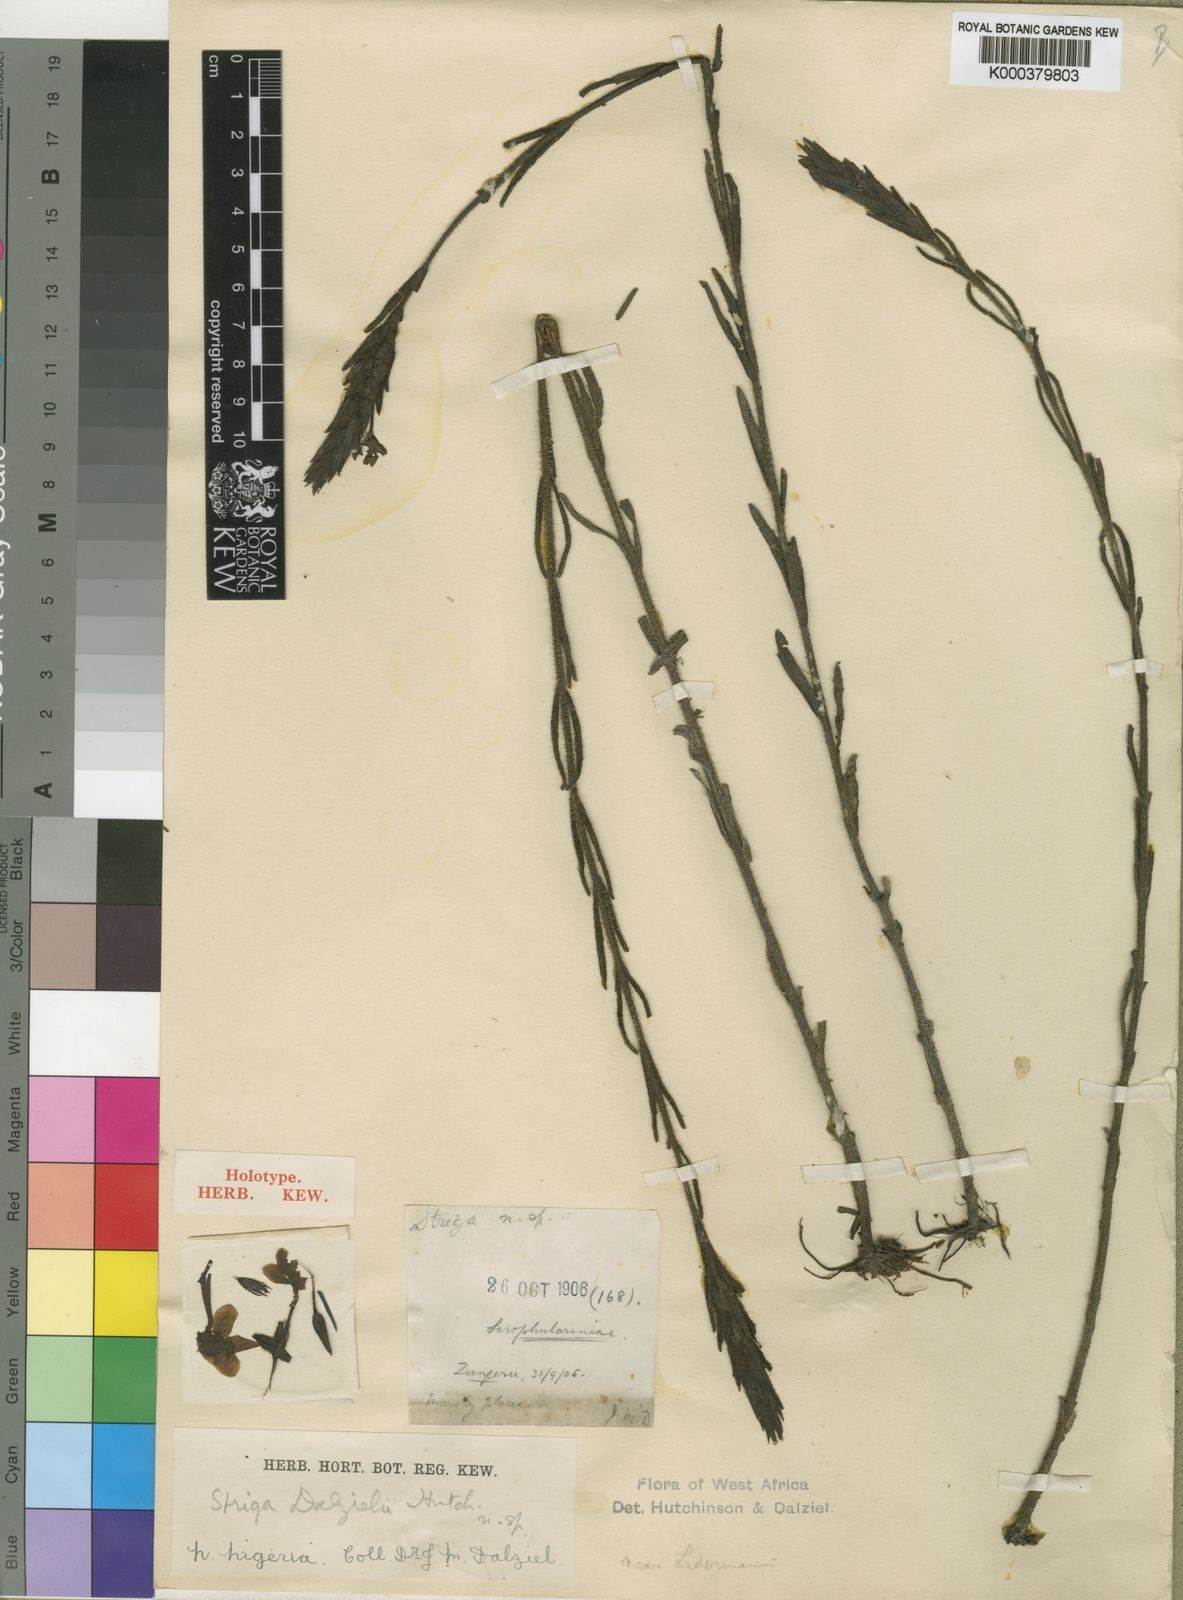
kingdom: Plantae
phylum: Tracheophyta
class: Magnoliopsida
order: Lamiales
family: Orobanchaceae
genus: Striga
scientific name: Striga dalzielii
